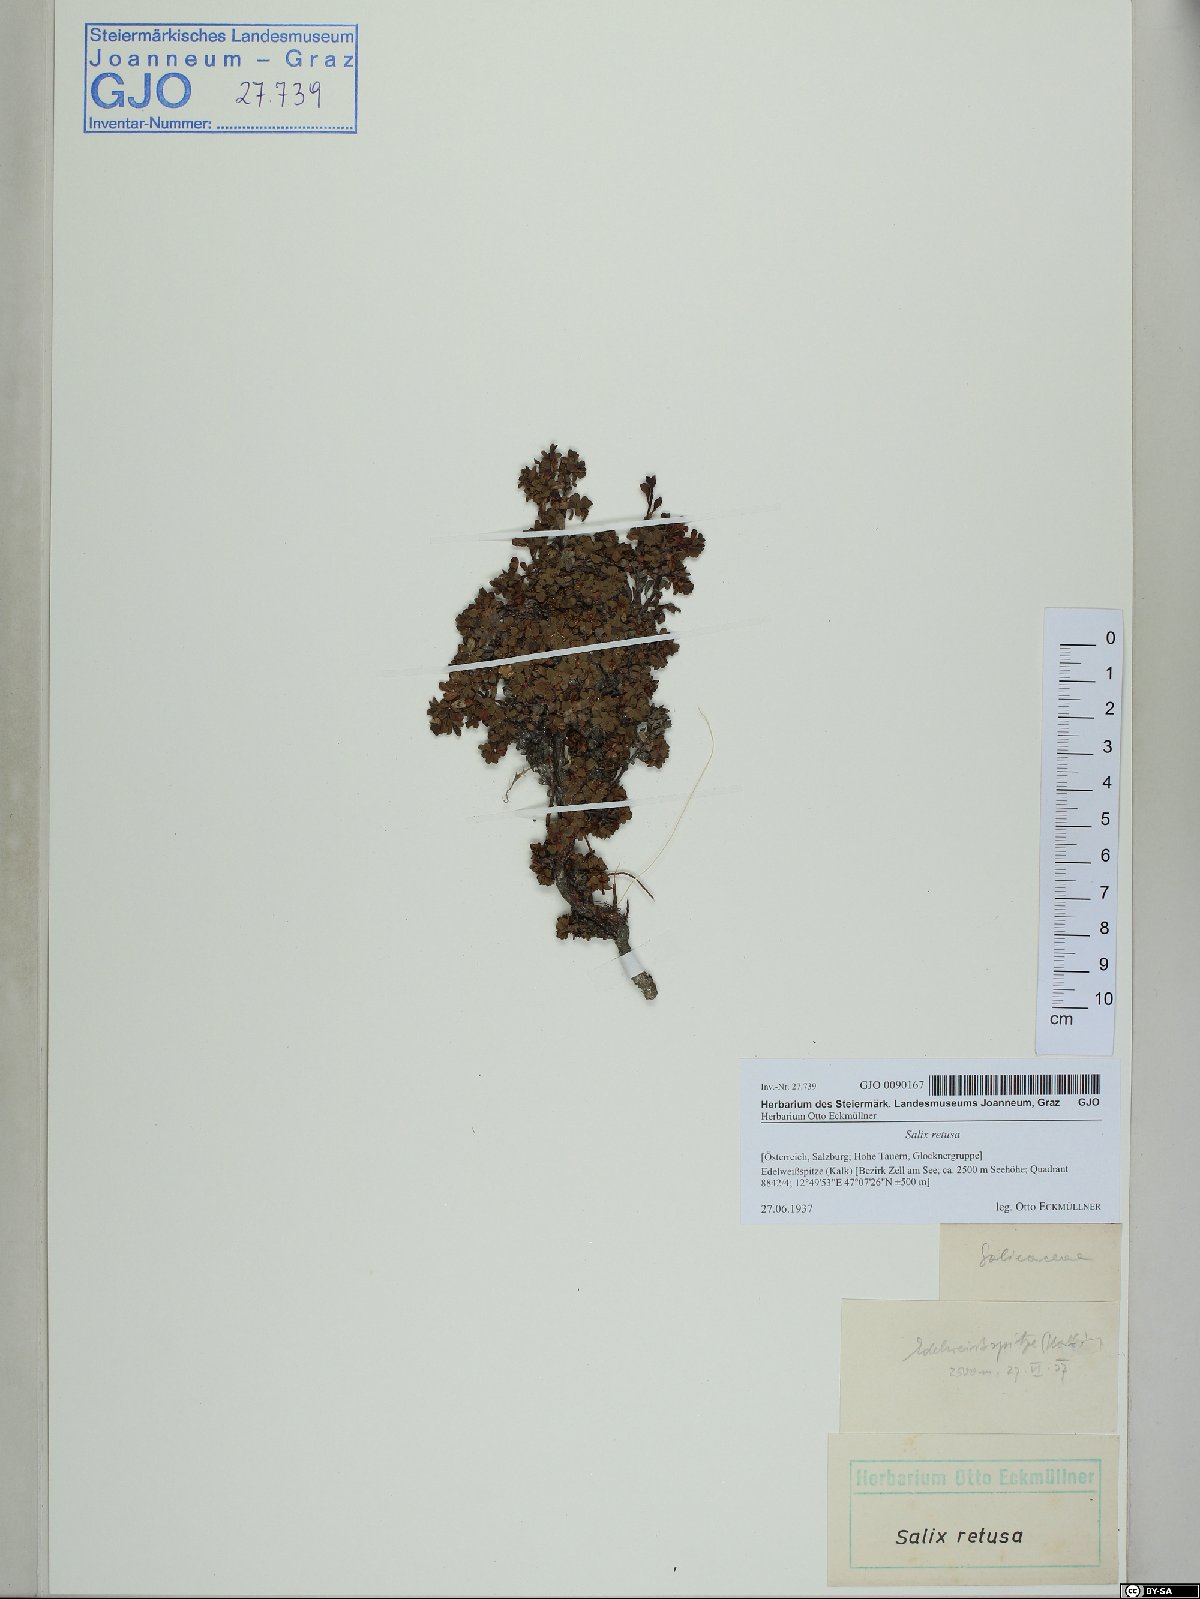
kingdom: Plantae
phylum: Tracheophyta
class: Magnoliopsida
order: Malpighiales
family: Salicaceae
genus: Salix
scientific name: Salix retusa
